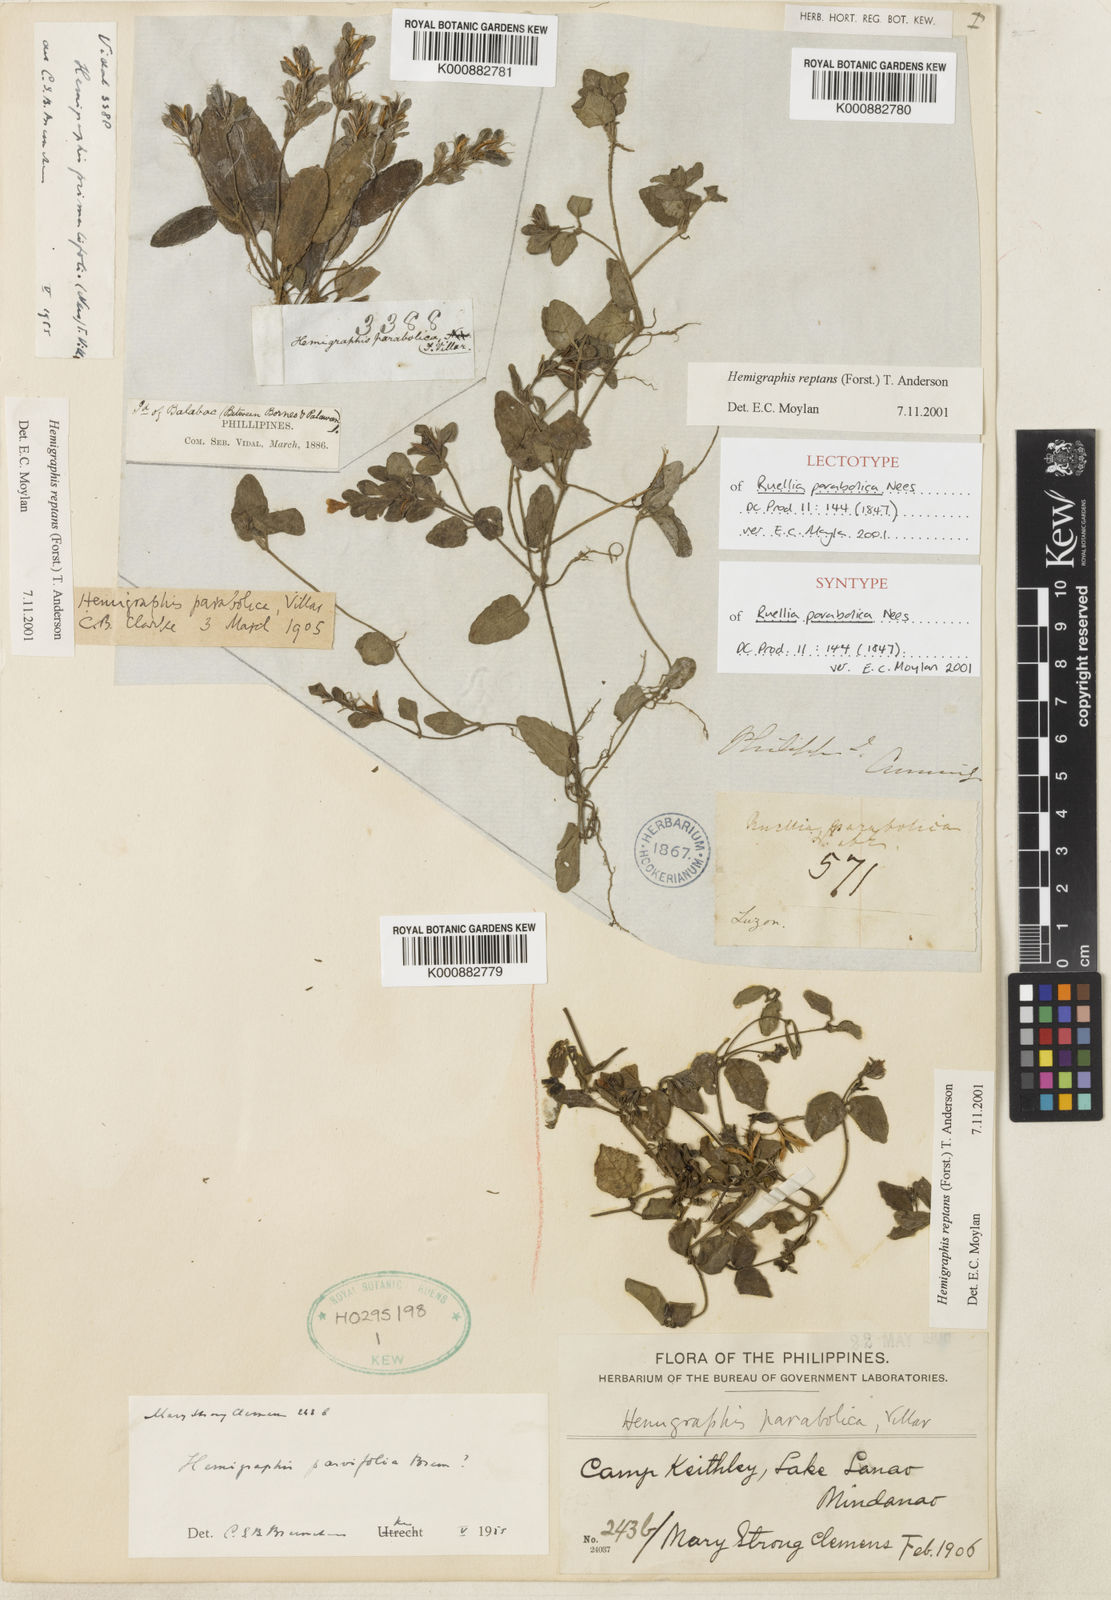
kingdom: Plantae
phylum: Tracheophyta
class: Magnoliopsida
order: Lamiales
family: Acanthaceae
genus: Strobilanthes
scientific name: Strobilanthes reptans
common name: Acanthaceae
